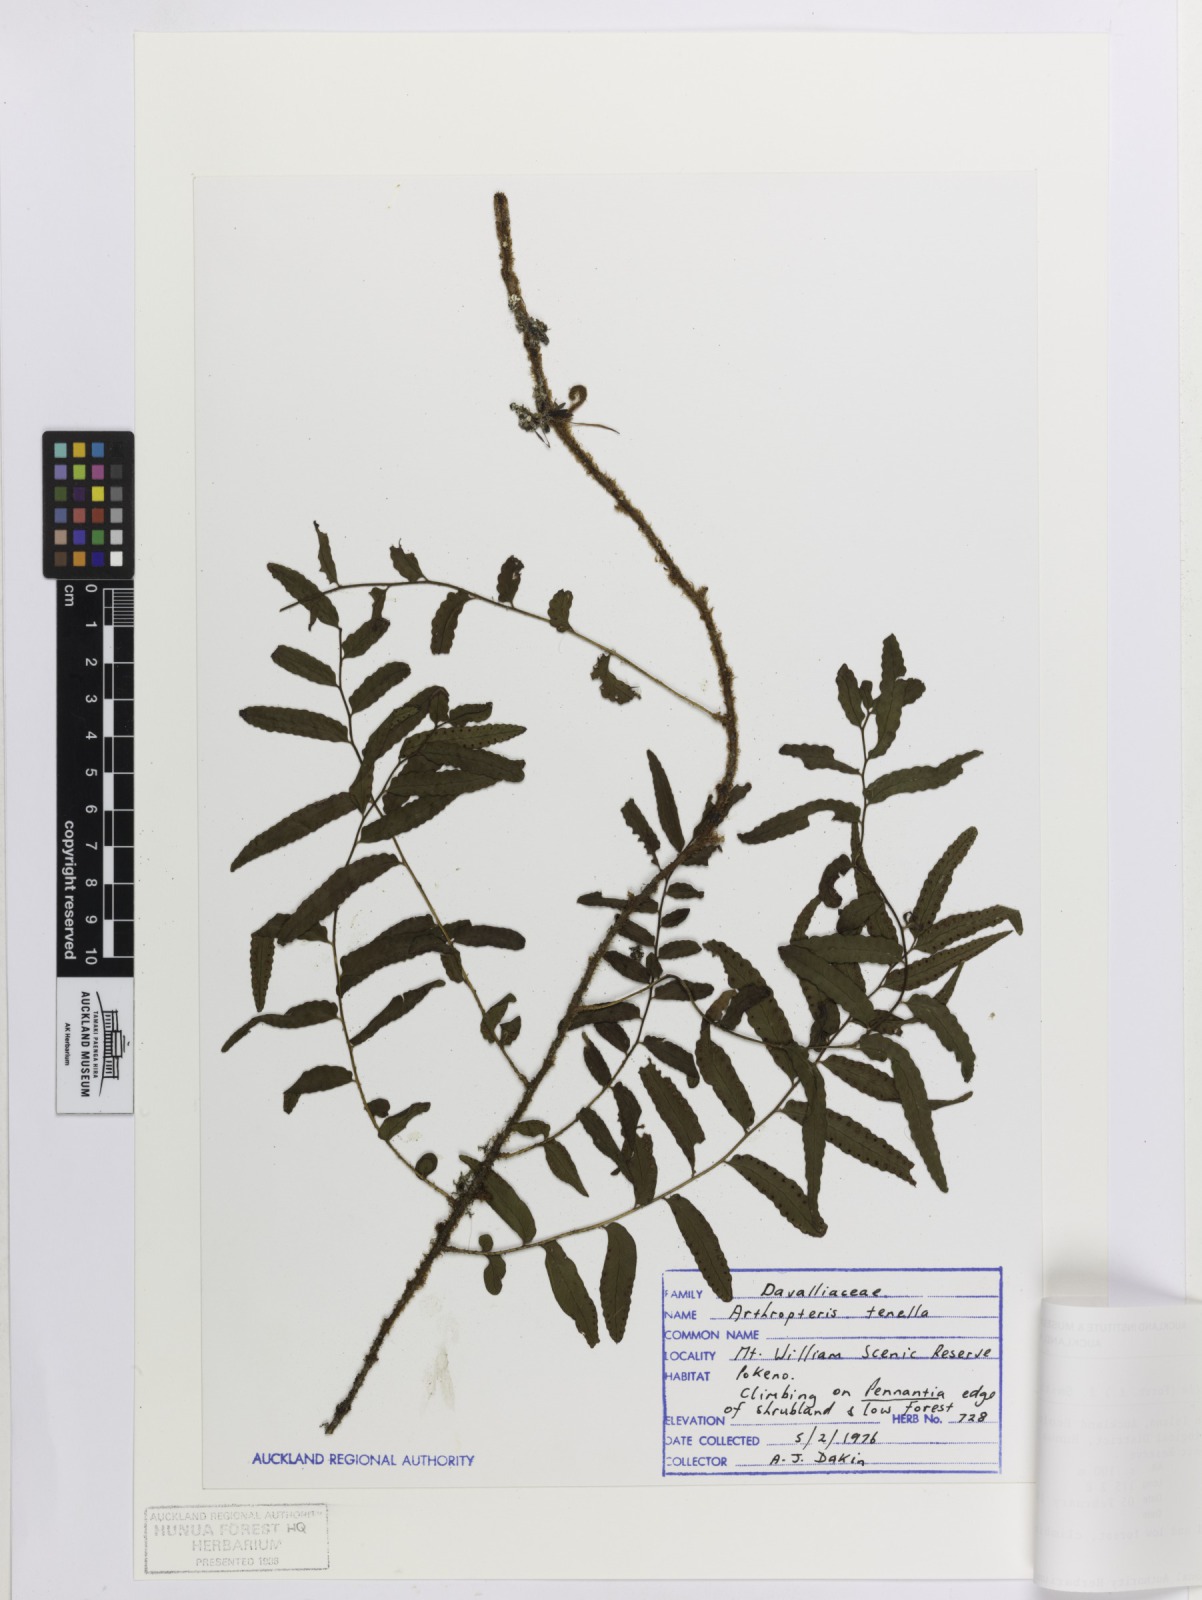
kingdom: Plantae
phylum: Tracheophyta
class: Polypodiopsida
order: Polypodiales
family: Tectariaceae
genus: Arthropteris
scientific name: Arthropteris tenella
